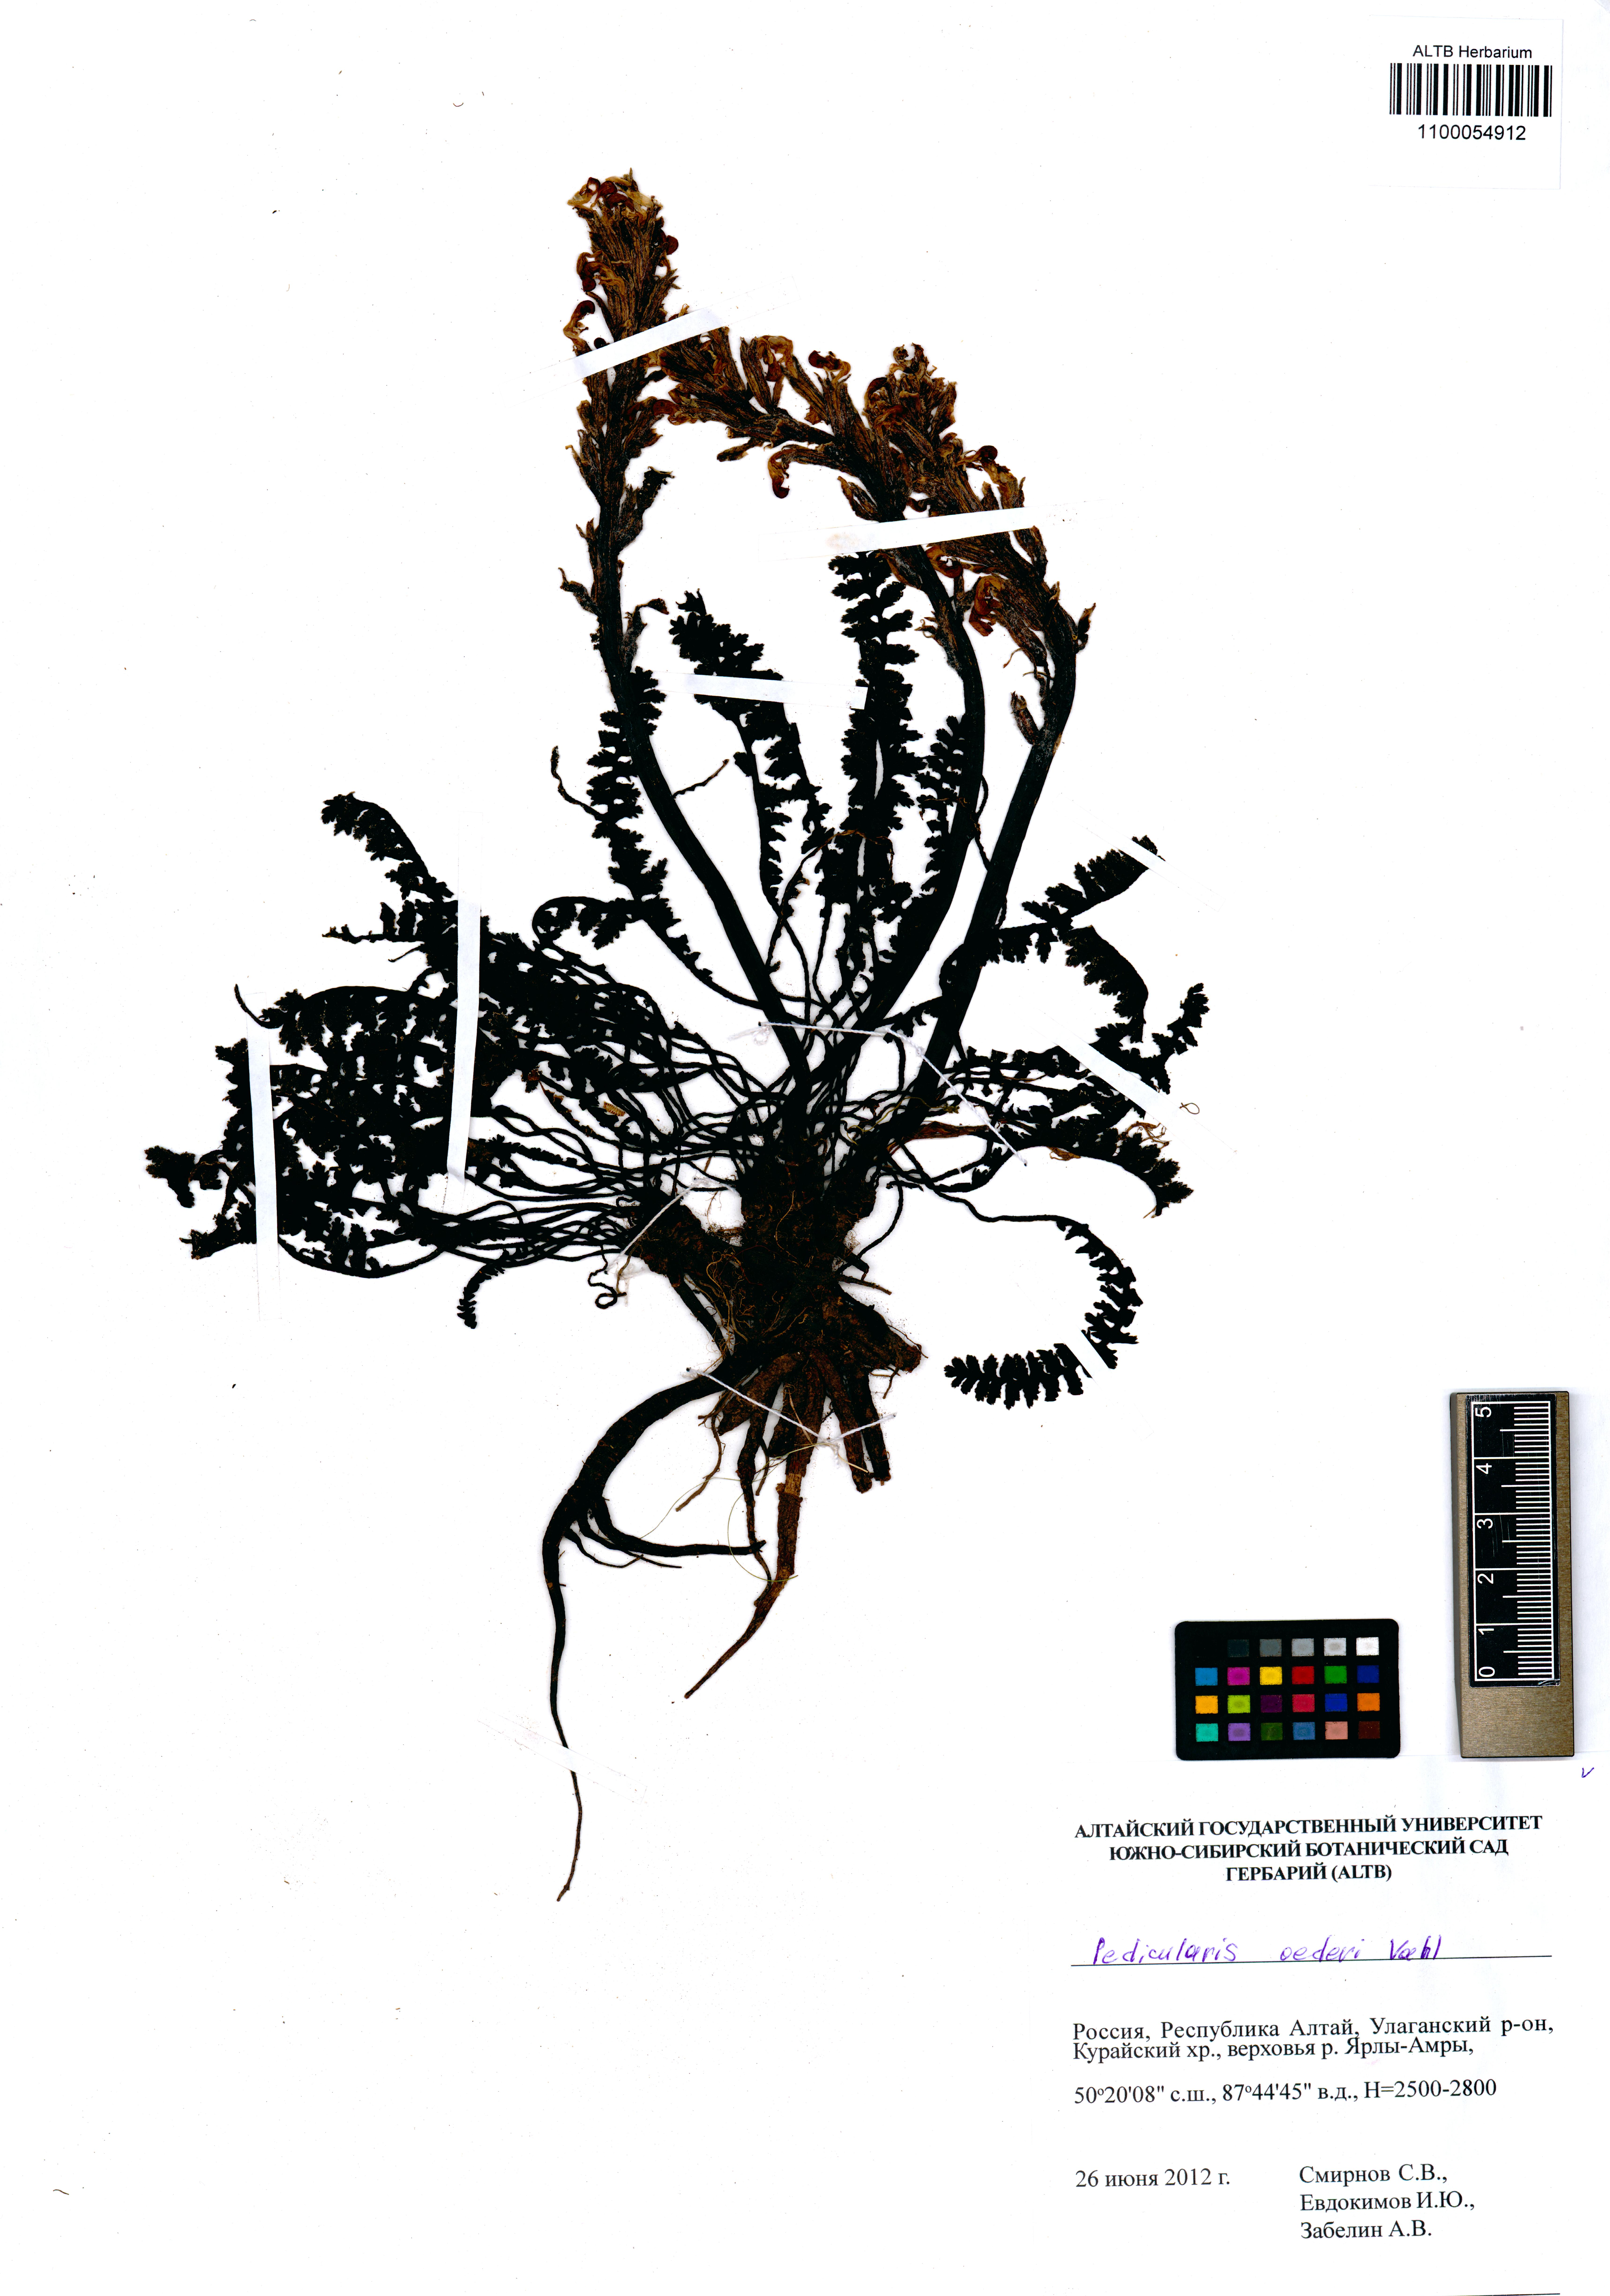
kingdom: Plantae
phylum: Tracheophyta
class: Magnoliopsida
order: Lamiales
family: Orobanchaceae
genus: Pedicularis
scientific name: Pedicularis oederi
